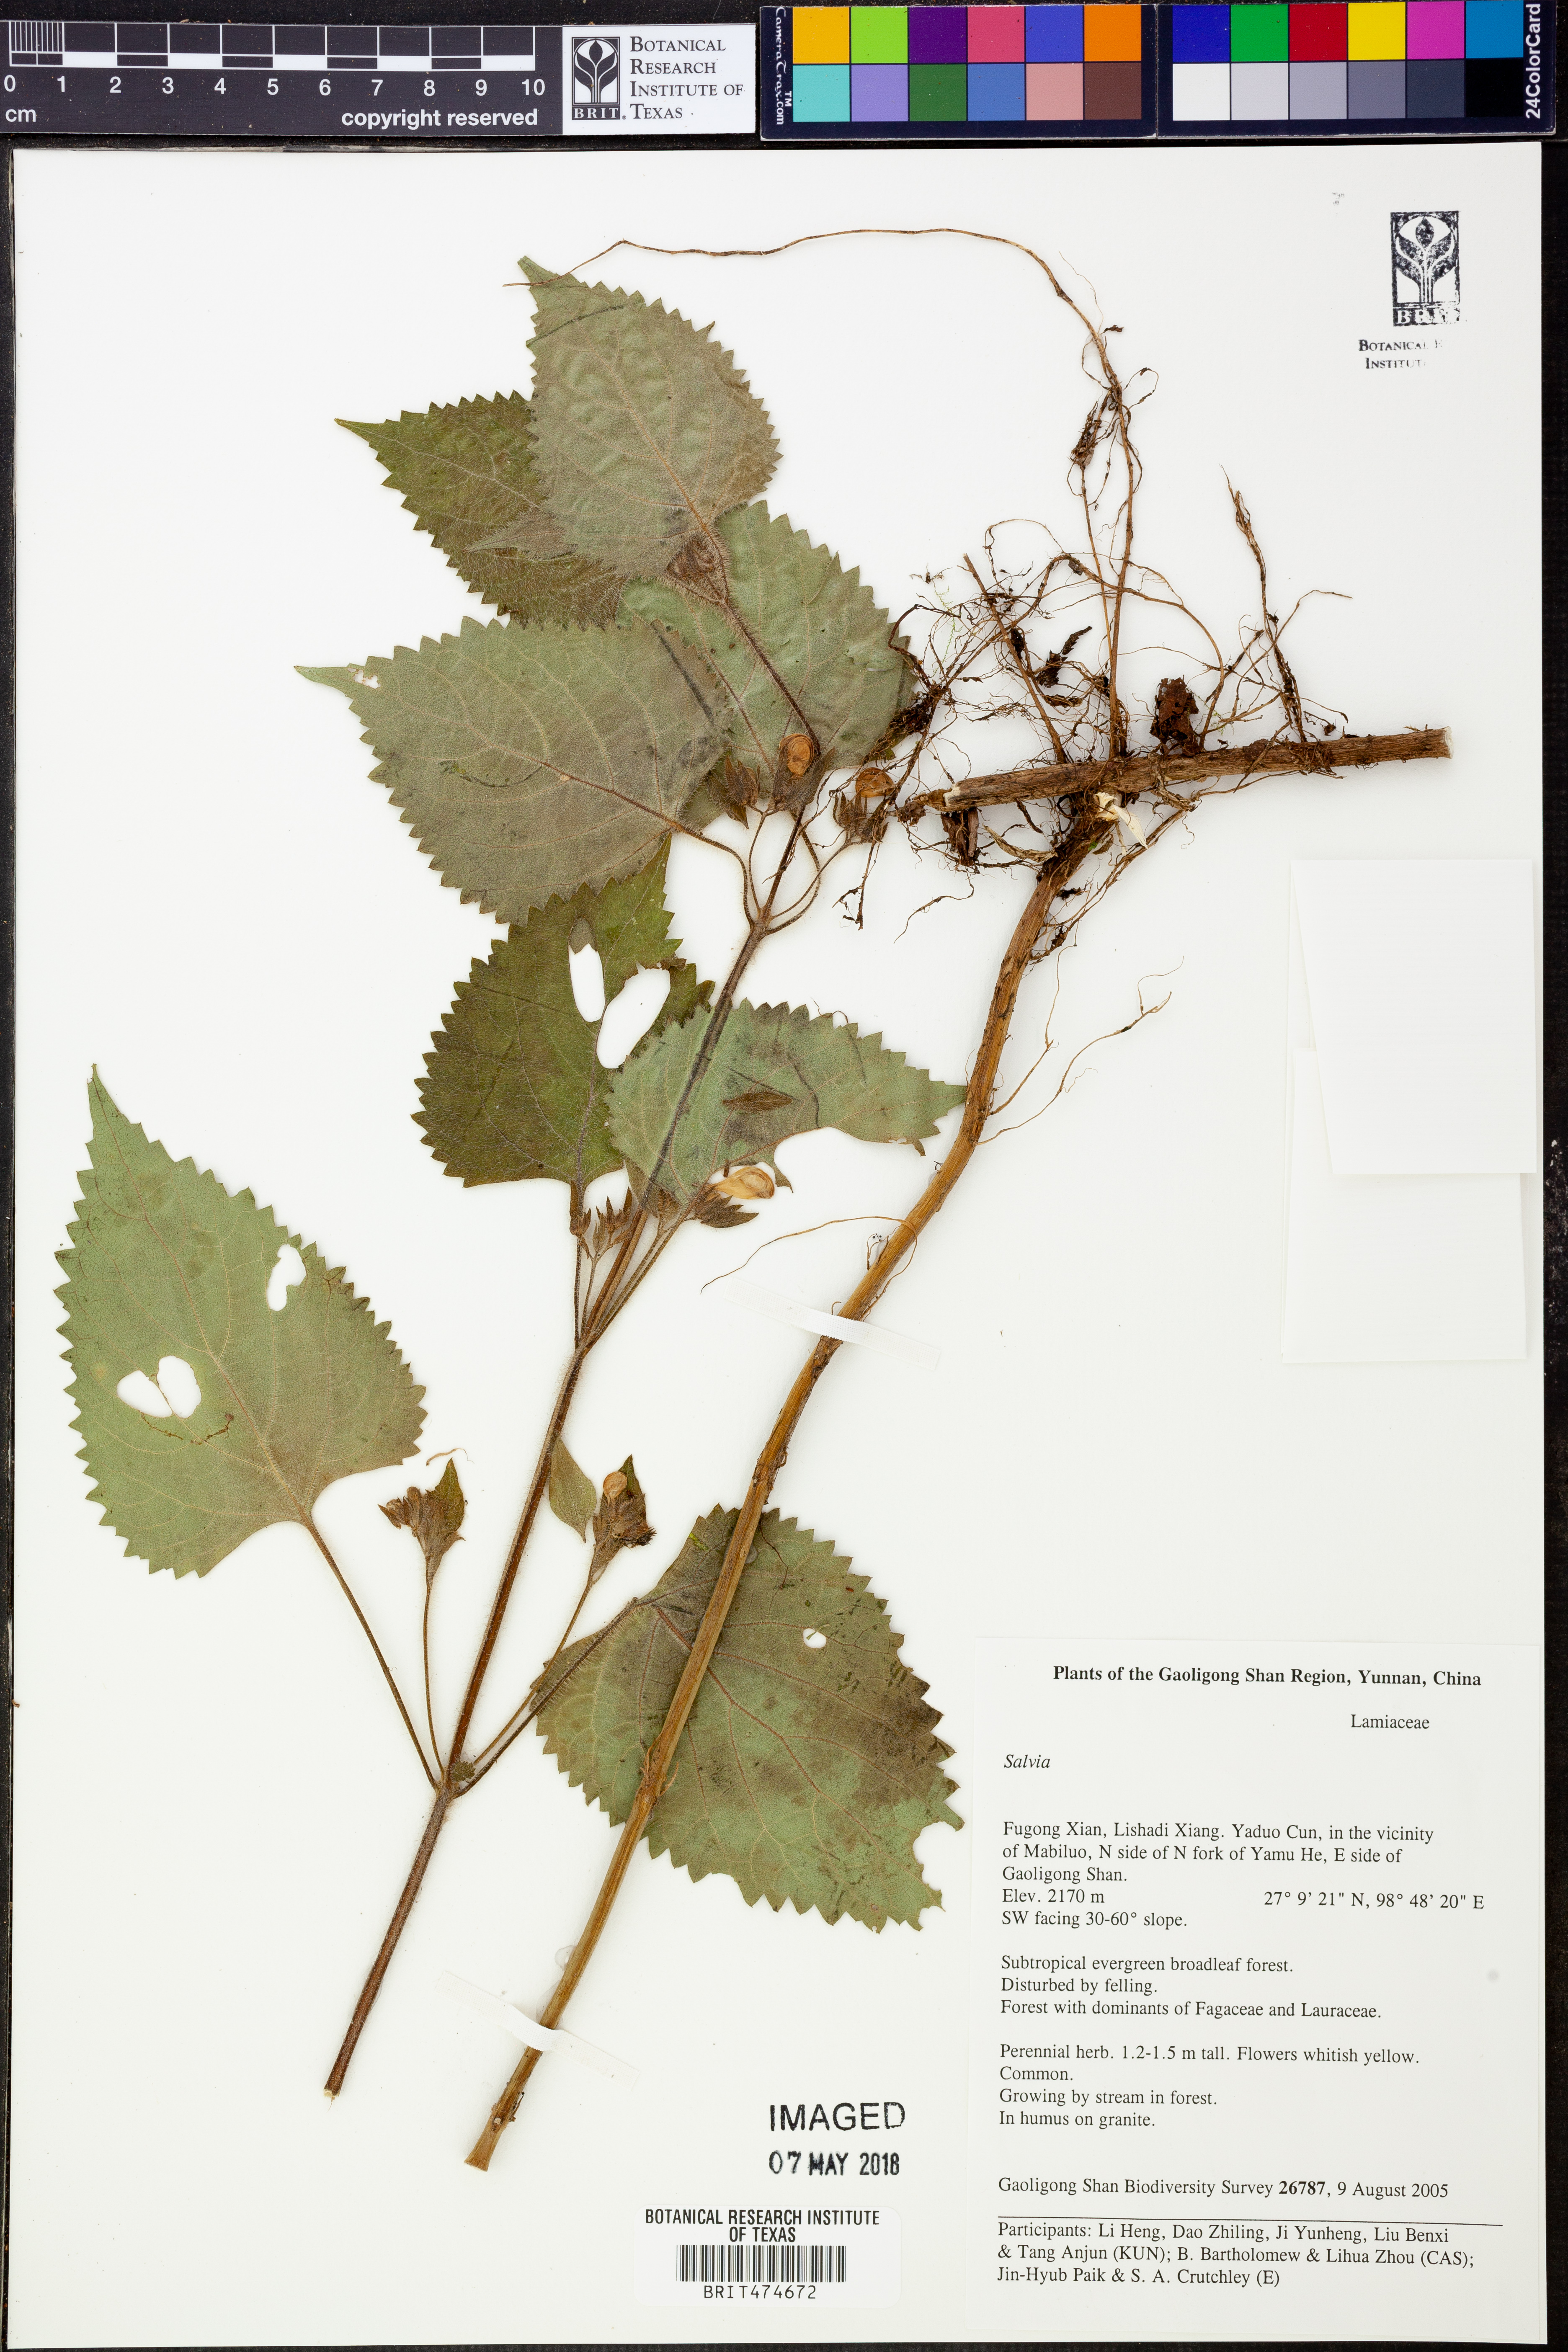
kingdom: Plantae
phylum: Tracheophyta
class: Magnoliopsida
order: Lamiales
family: Lamiaceae
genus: Salvia
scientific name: Salvia
